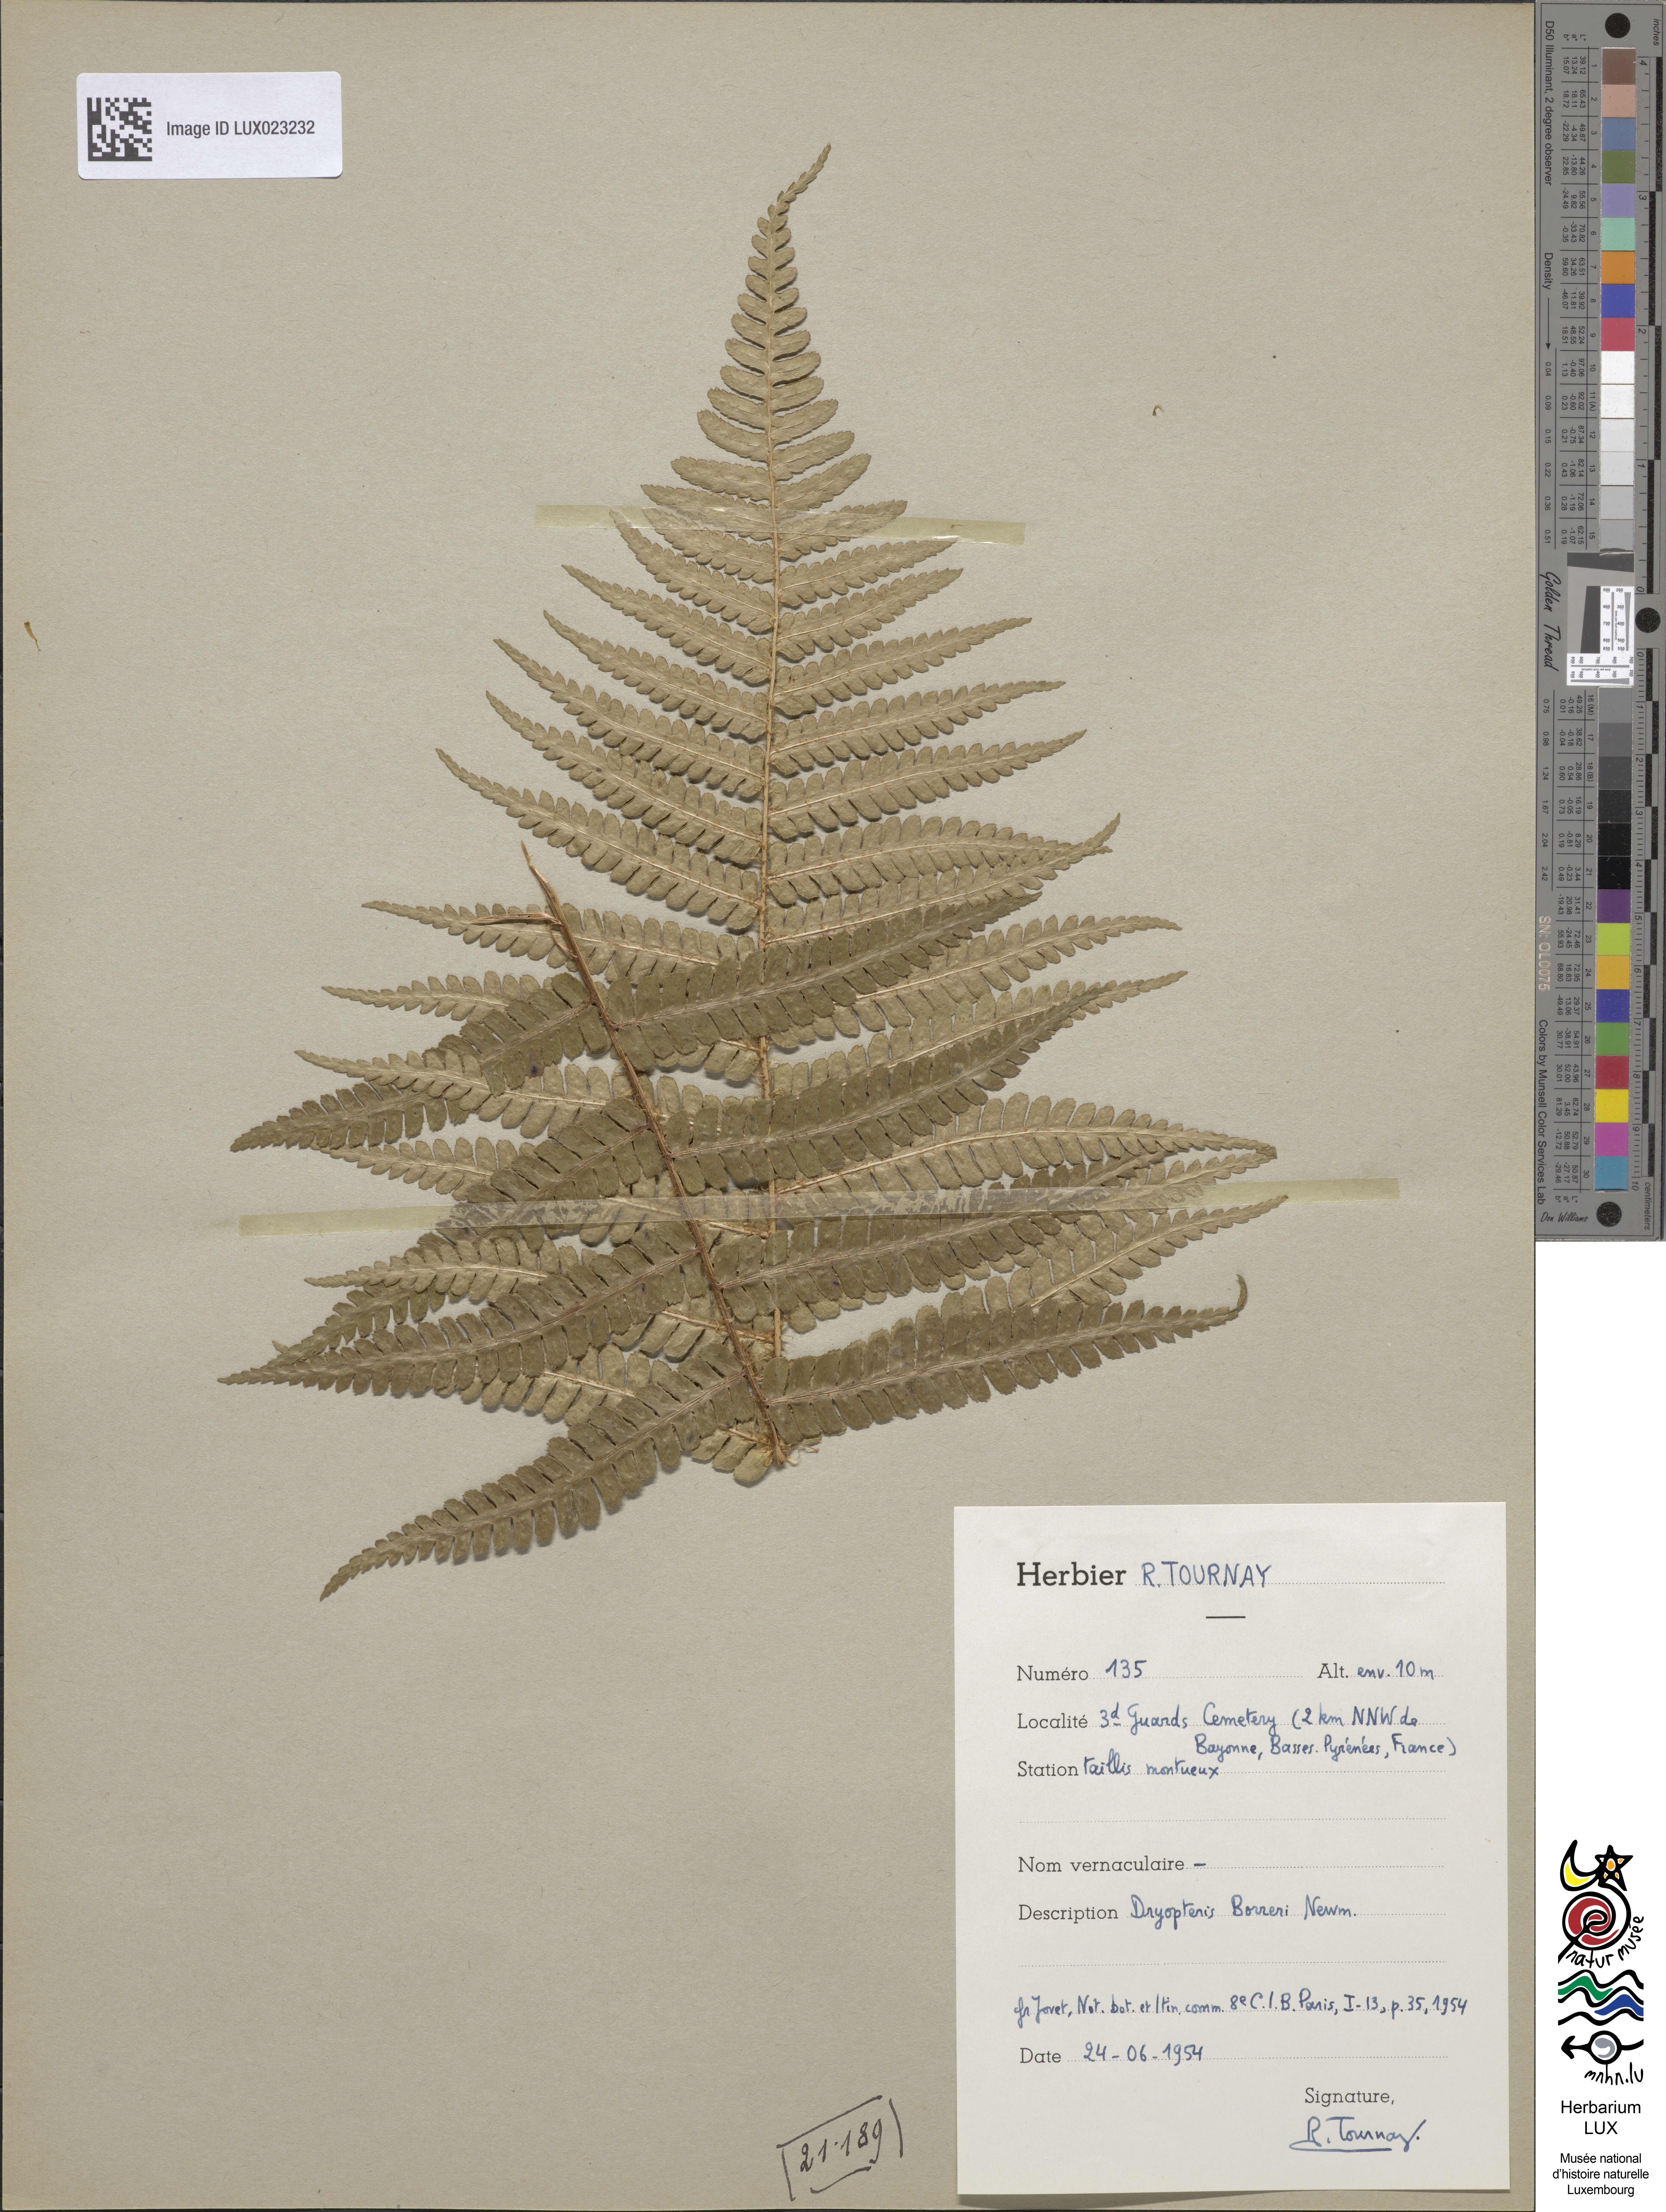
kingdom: Plantae
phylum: Tracheophyta
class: Polypodiopsida
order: Polypodiales
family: Dryopteridaceae
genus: Dryopteris
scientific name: Dryopteris
